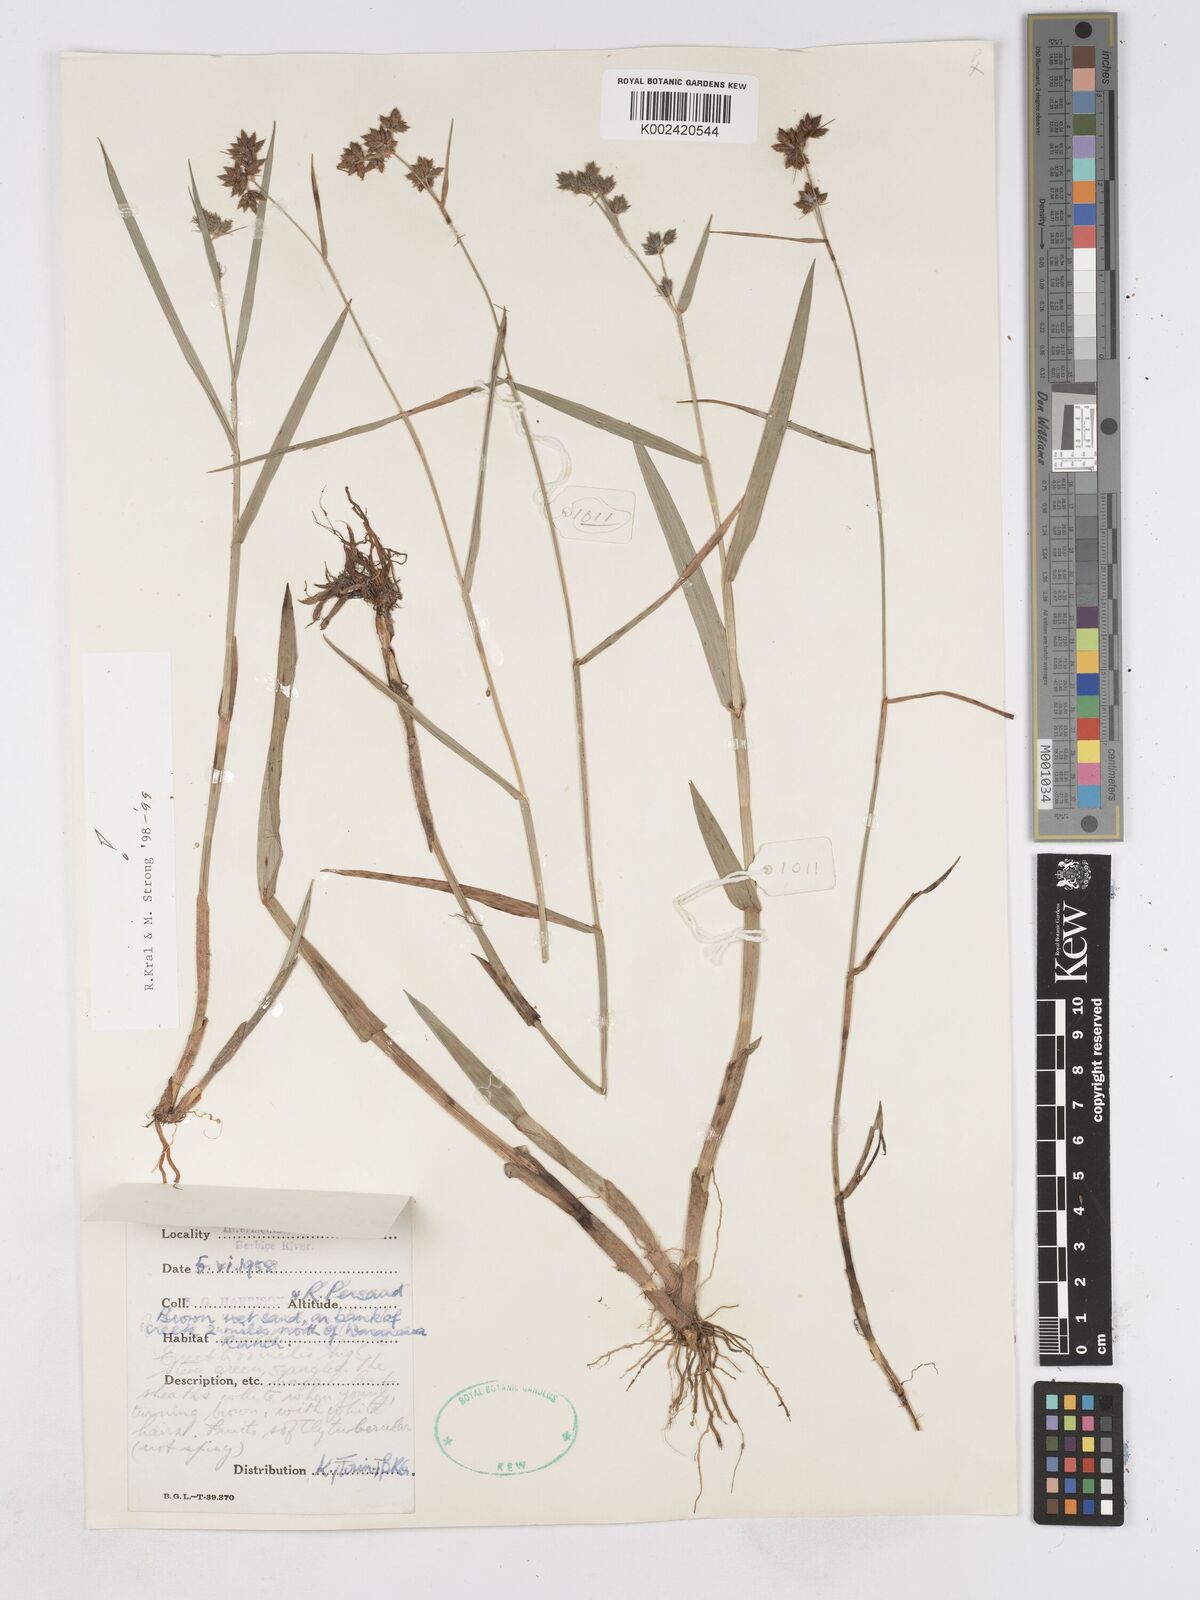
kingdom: Plantae
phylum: Tracheophyta
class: Liliopsida
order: Poales
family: Cyperaceae
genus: Fuirena
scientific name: Fuirena umbellata
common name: Yefen
